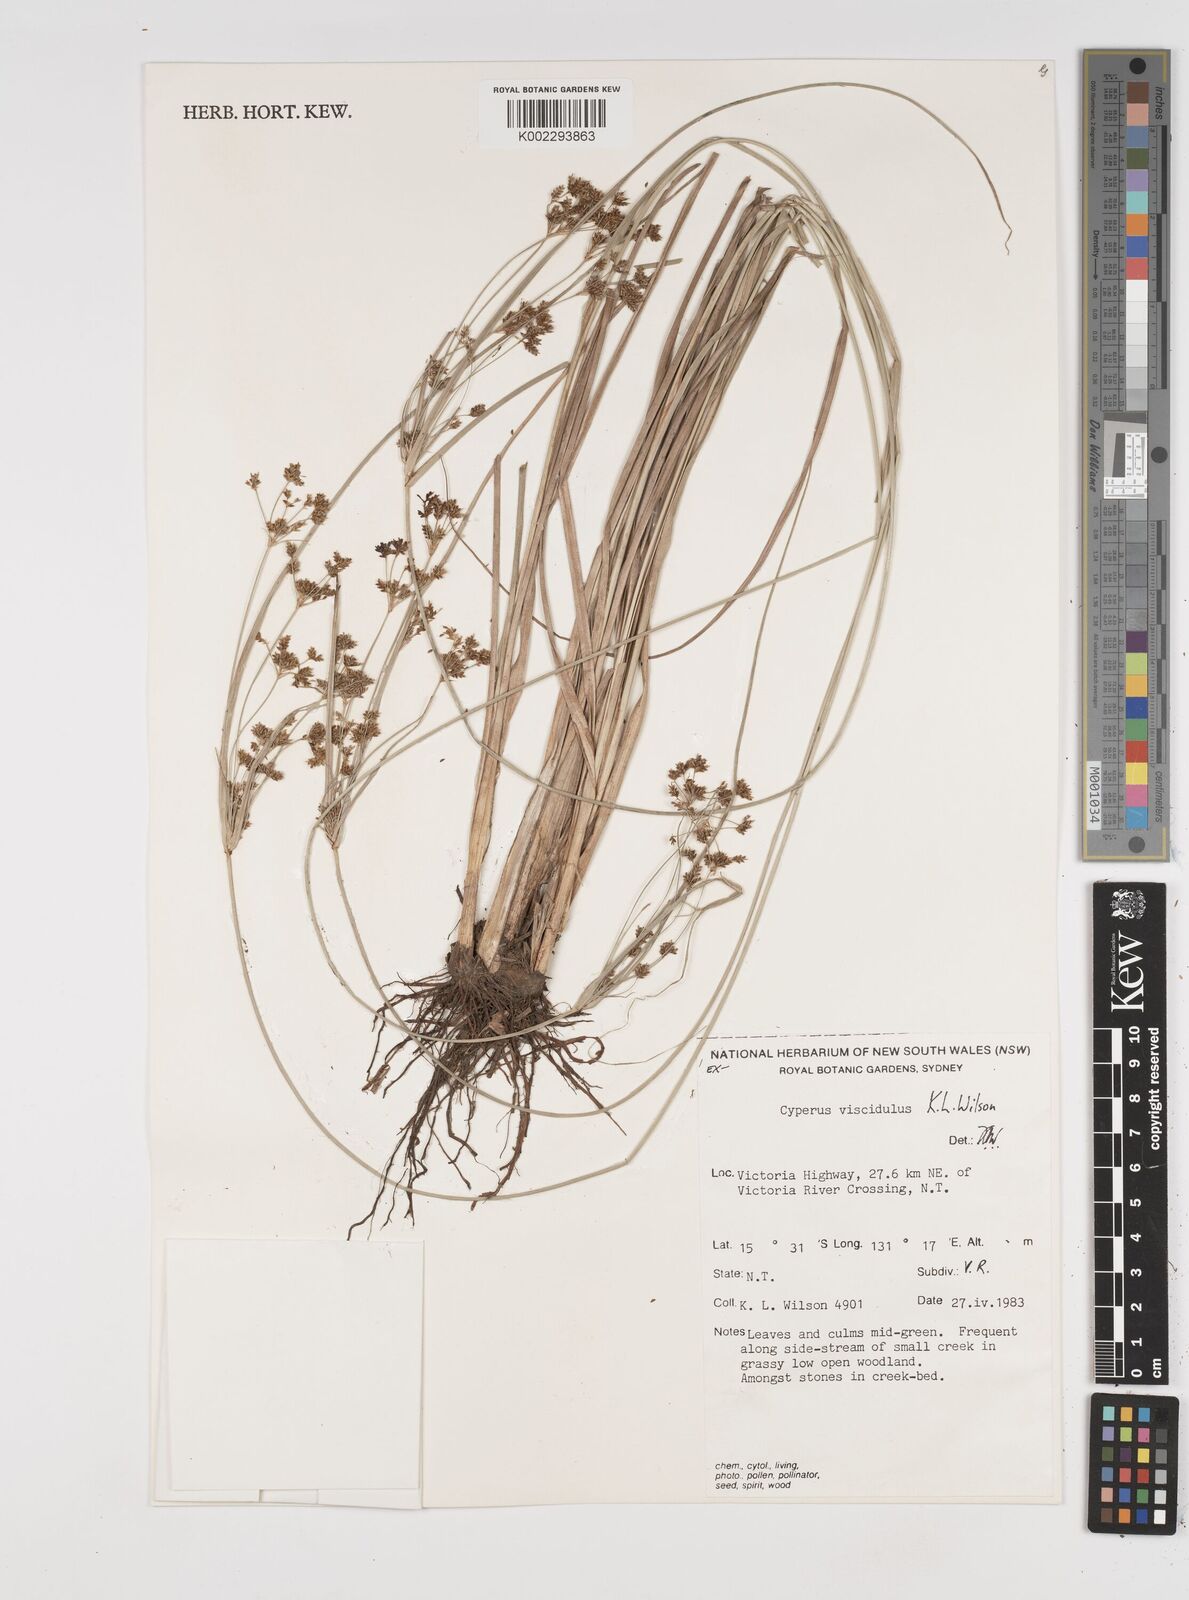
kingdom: Plantae
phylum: Tracheophyta
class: Liliopsida
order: Poales
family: Cyperaceae
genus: Cyperus
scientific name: Cyperus viscidulus
